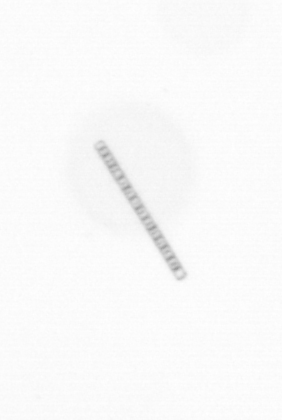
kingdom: Chromista
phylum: Ochrophyta
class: Bacillariophyceae
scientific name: Bacillariophyceae
